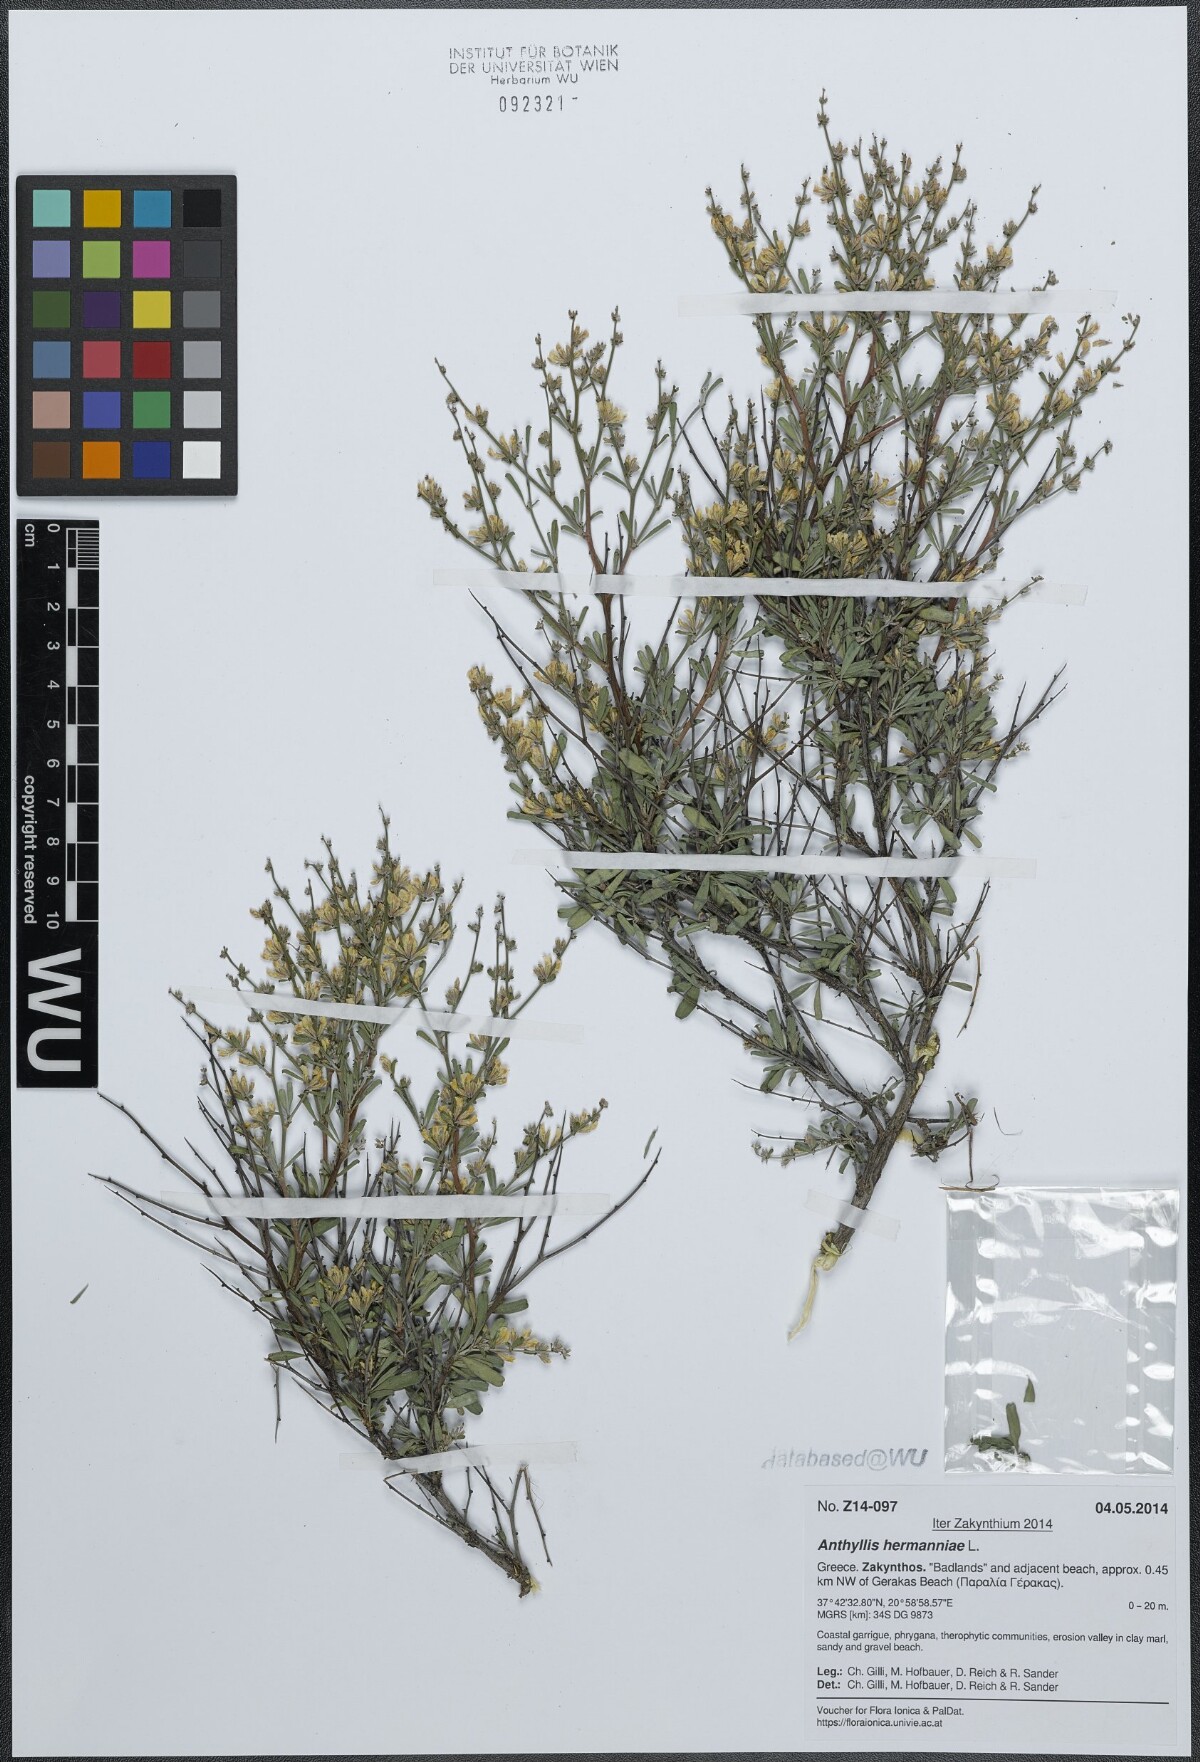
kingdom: Plantae
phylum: Tracheophyta
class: Magnoliopsida
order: Fabales
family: Fabaceae
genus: Anthyllis
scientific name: Anthyllis hermanniae
